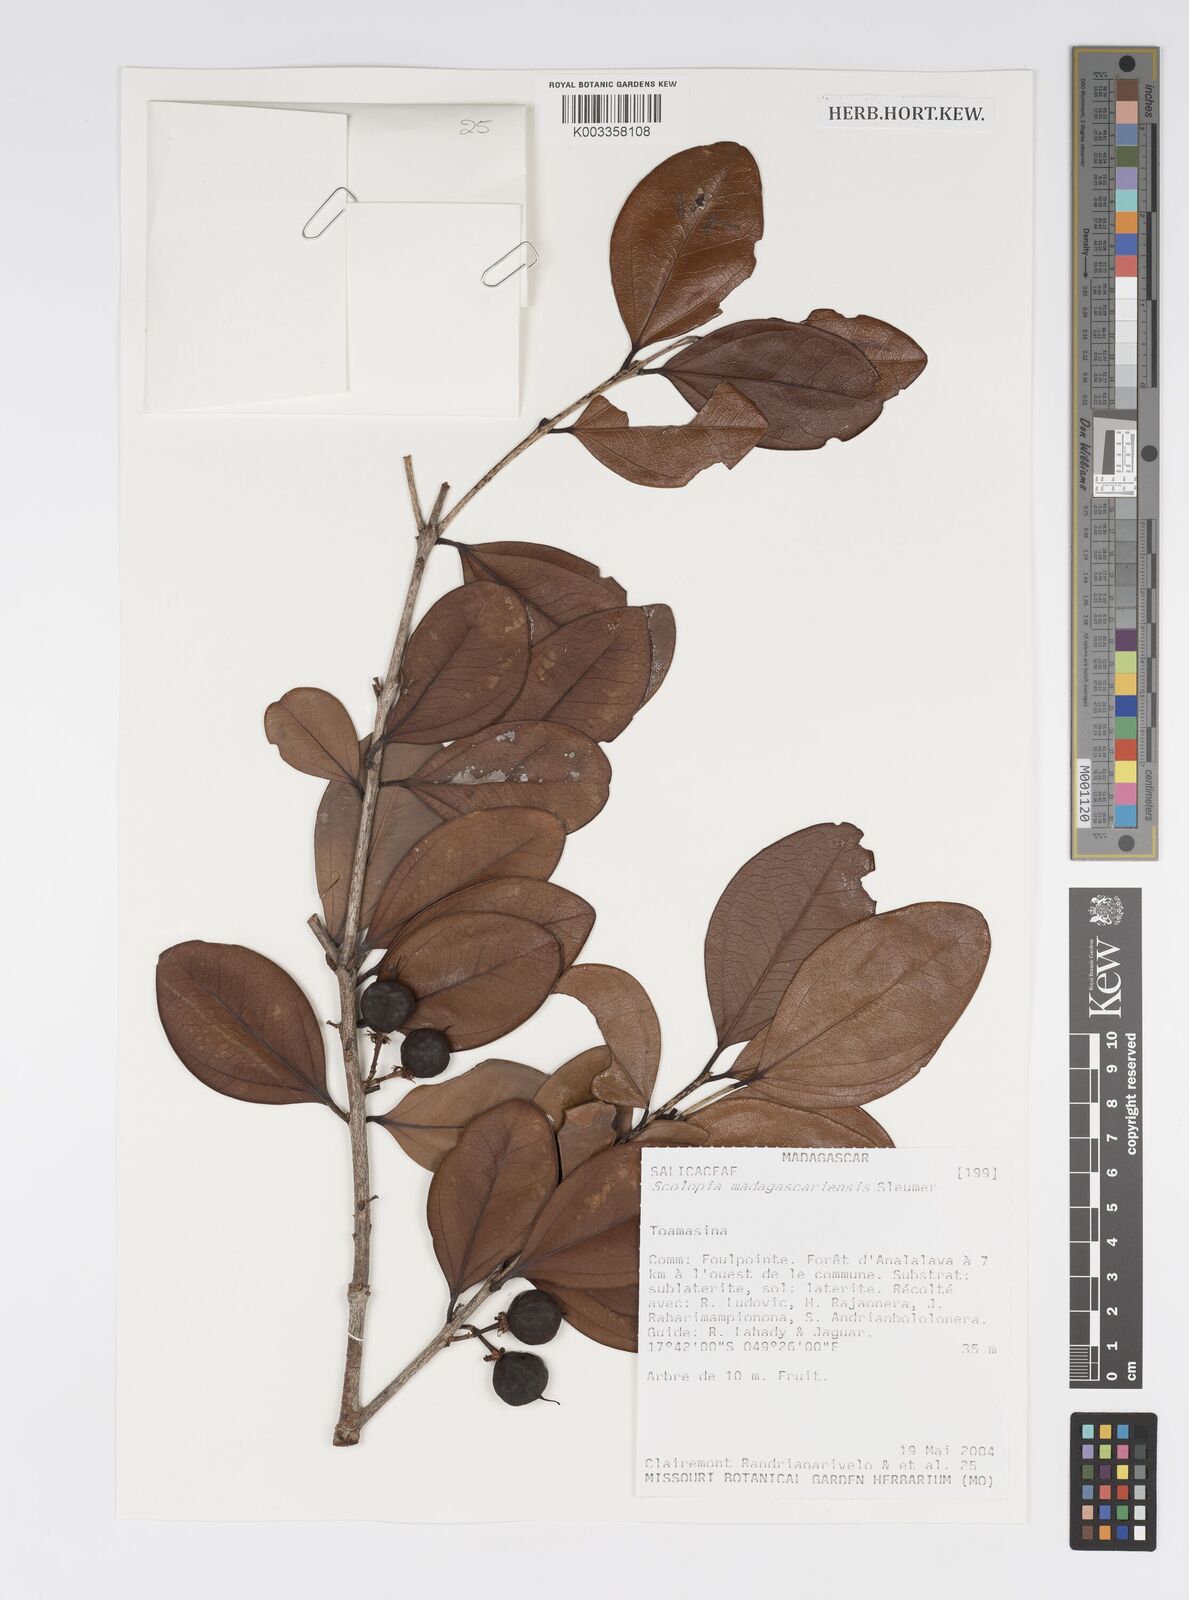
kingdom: Plantae
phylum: Tracheophyta
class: Magnoliopsida
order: Malpighiales
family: Salicaceae
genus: Scolopia
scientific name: Scolopia madagascariensis
